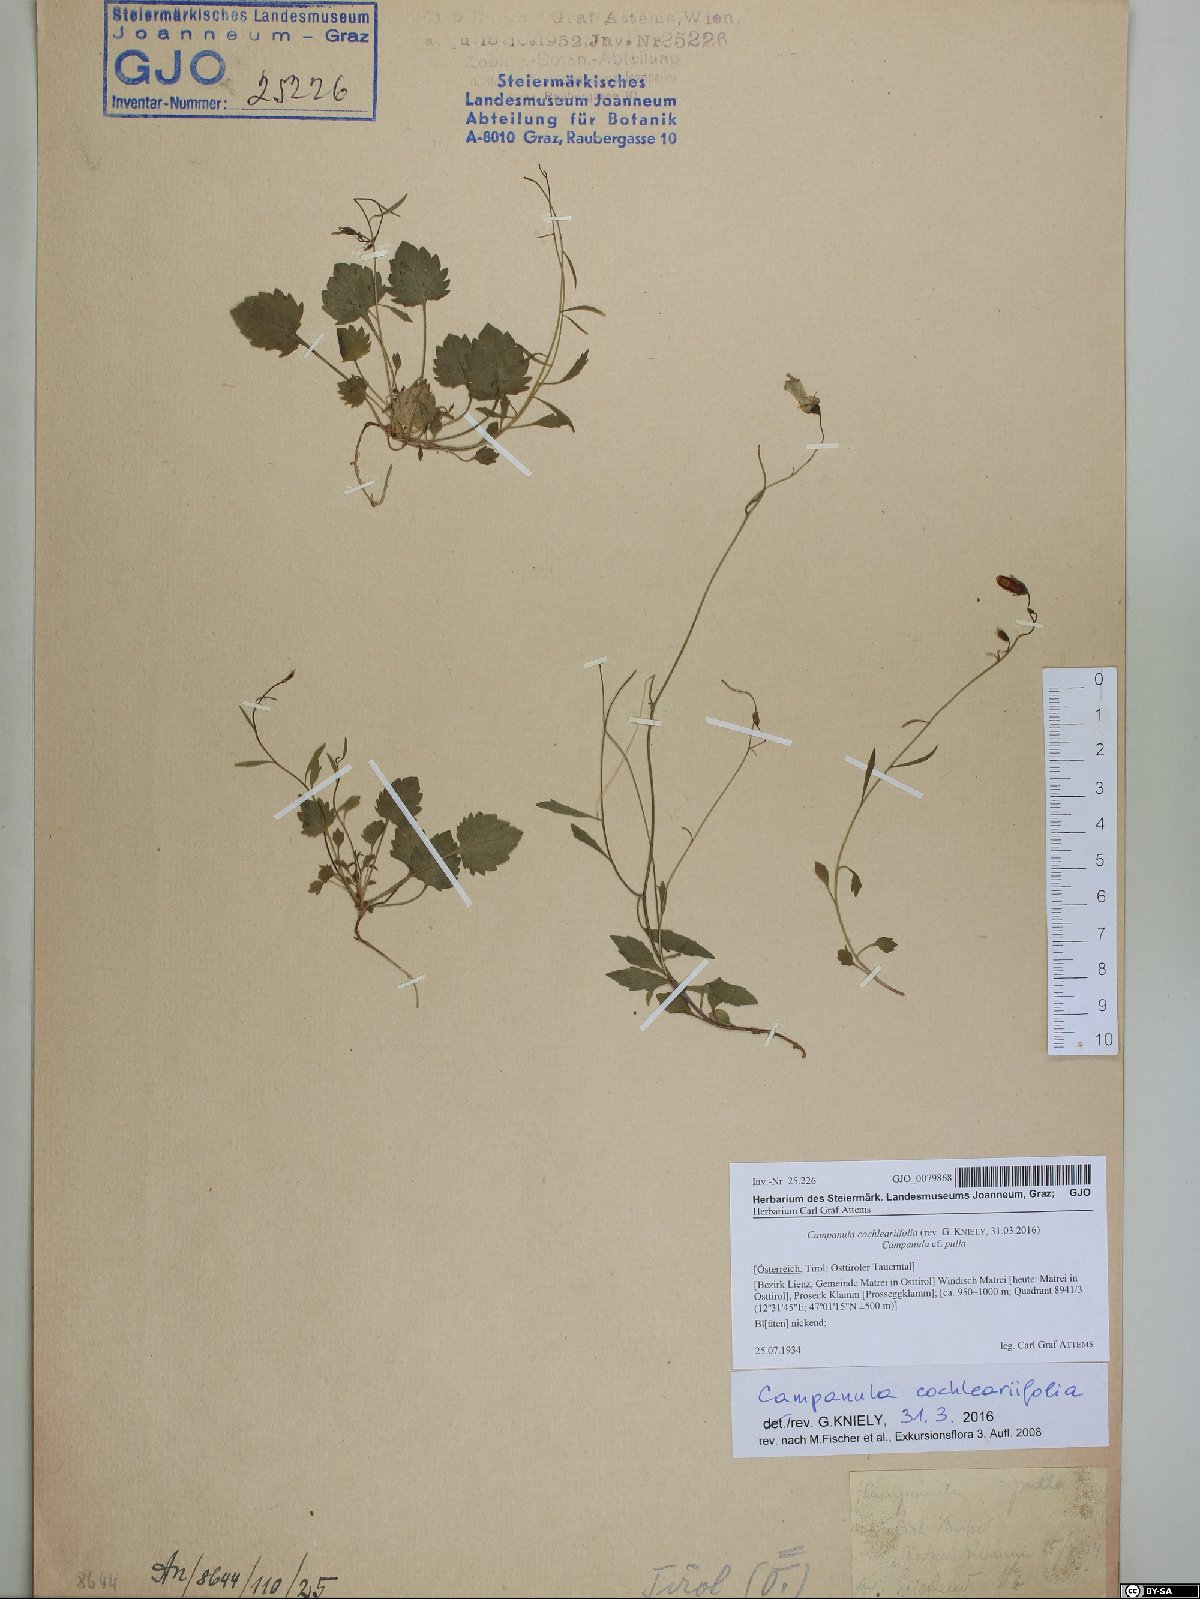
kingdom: Plantae
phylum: Tracheophyta
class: Magnoliopsida
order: Asterales
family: Campanulaceae
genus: Campanula
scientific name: Campanula cochleariifolia
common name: Fairies'-thimbles
